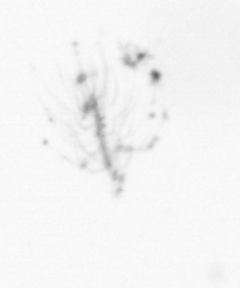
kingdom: Chromista
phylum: Ochrophyta
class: Bacillariophyceae
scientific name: Bacillariophyceae
